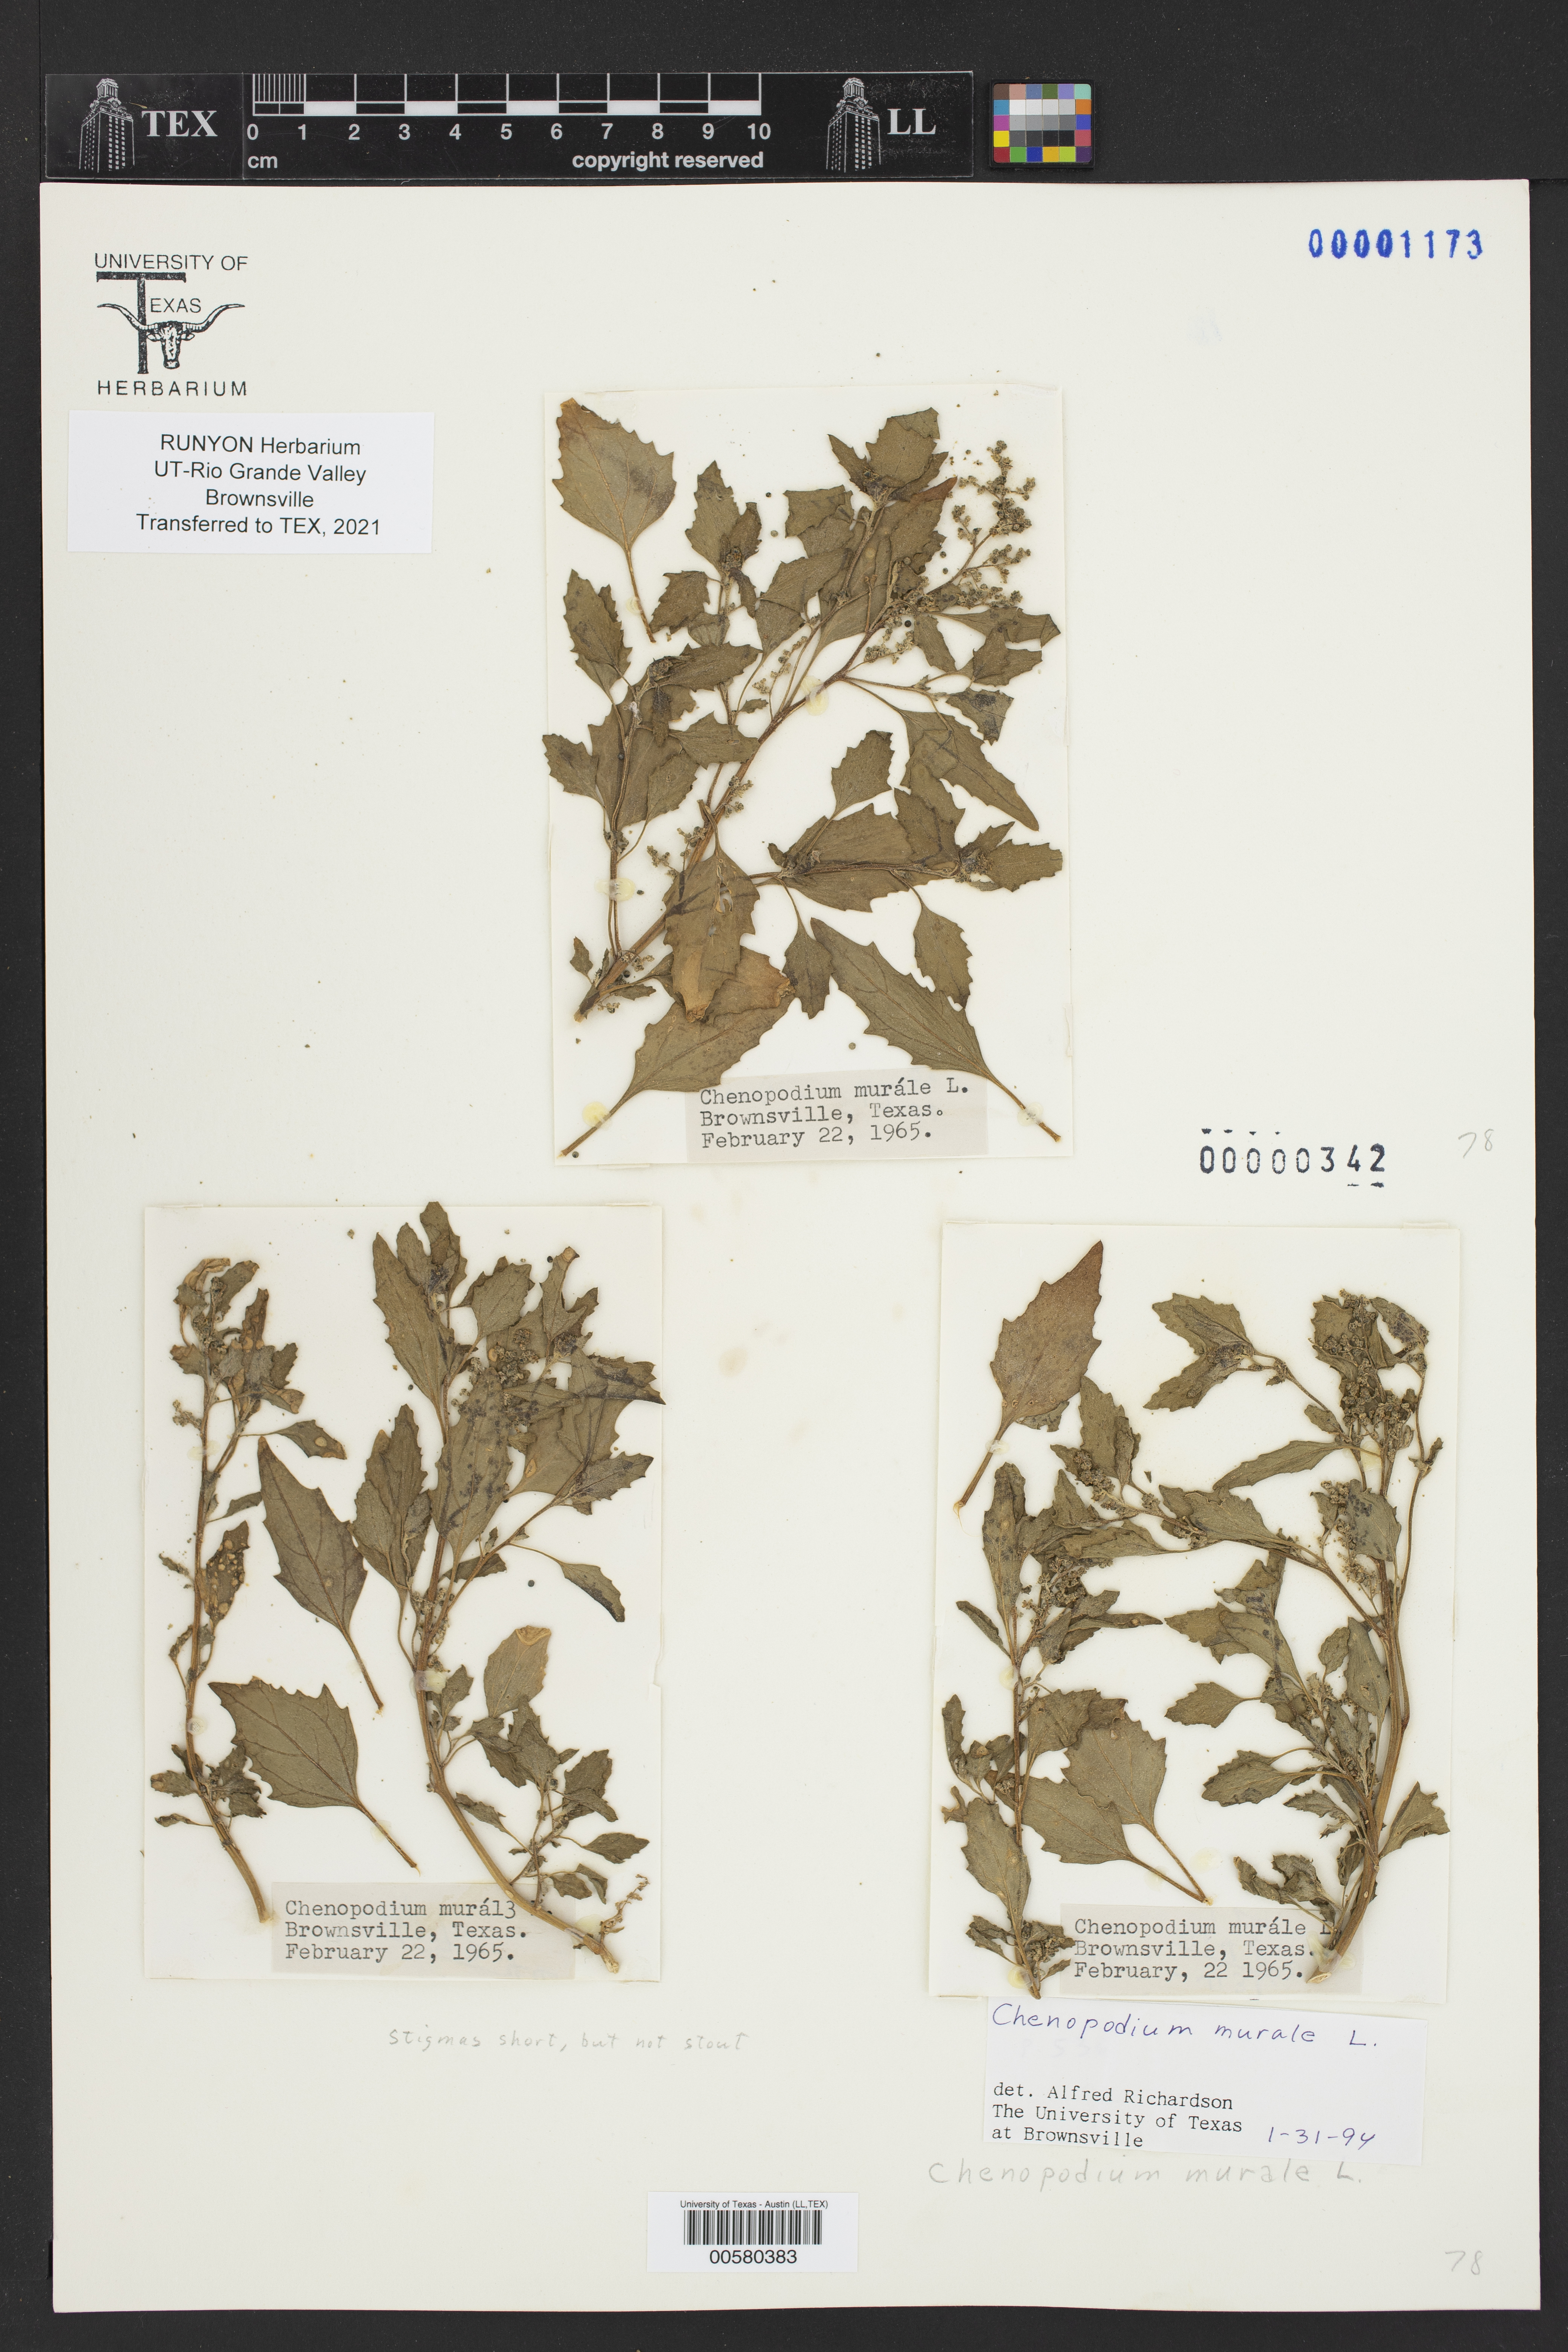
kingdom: Plantae
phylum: Tracheophyta
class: Magnoliopsida
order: Caryophyllales
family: Amaranthaceae
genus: Chenopodiastrum
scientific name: Chenopodiastrum murale
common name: Sowbane
